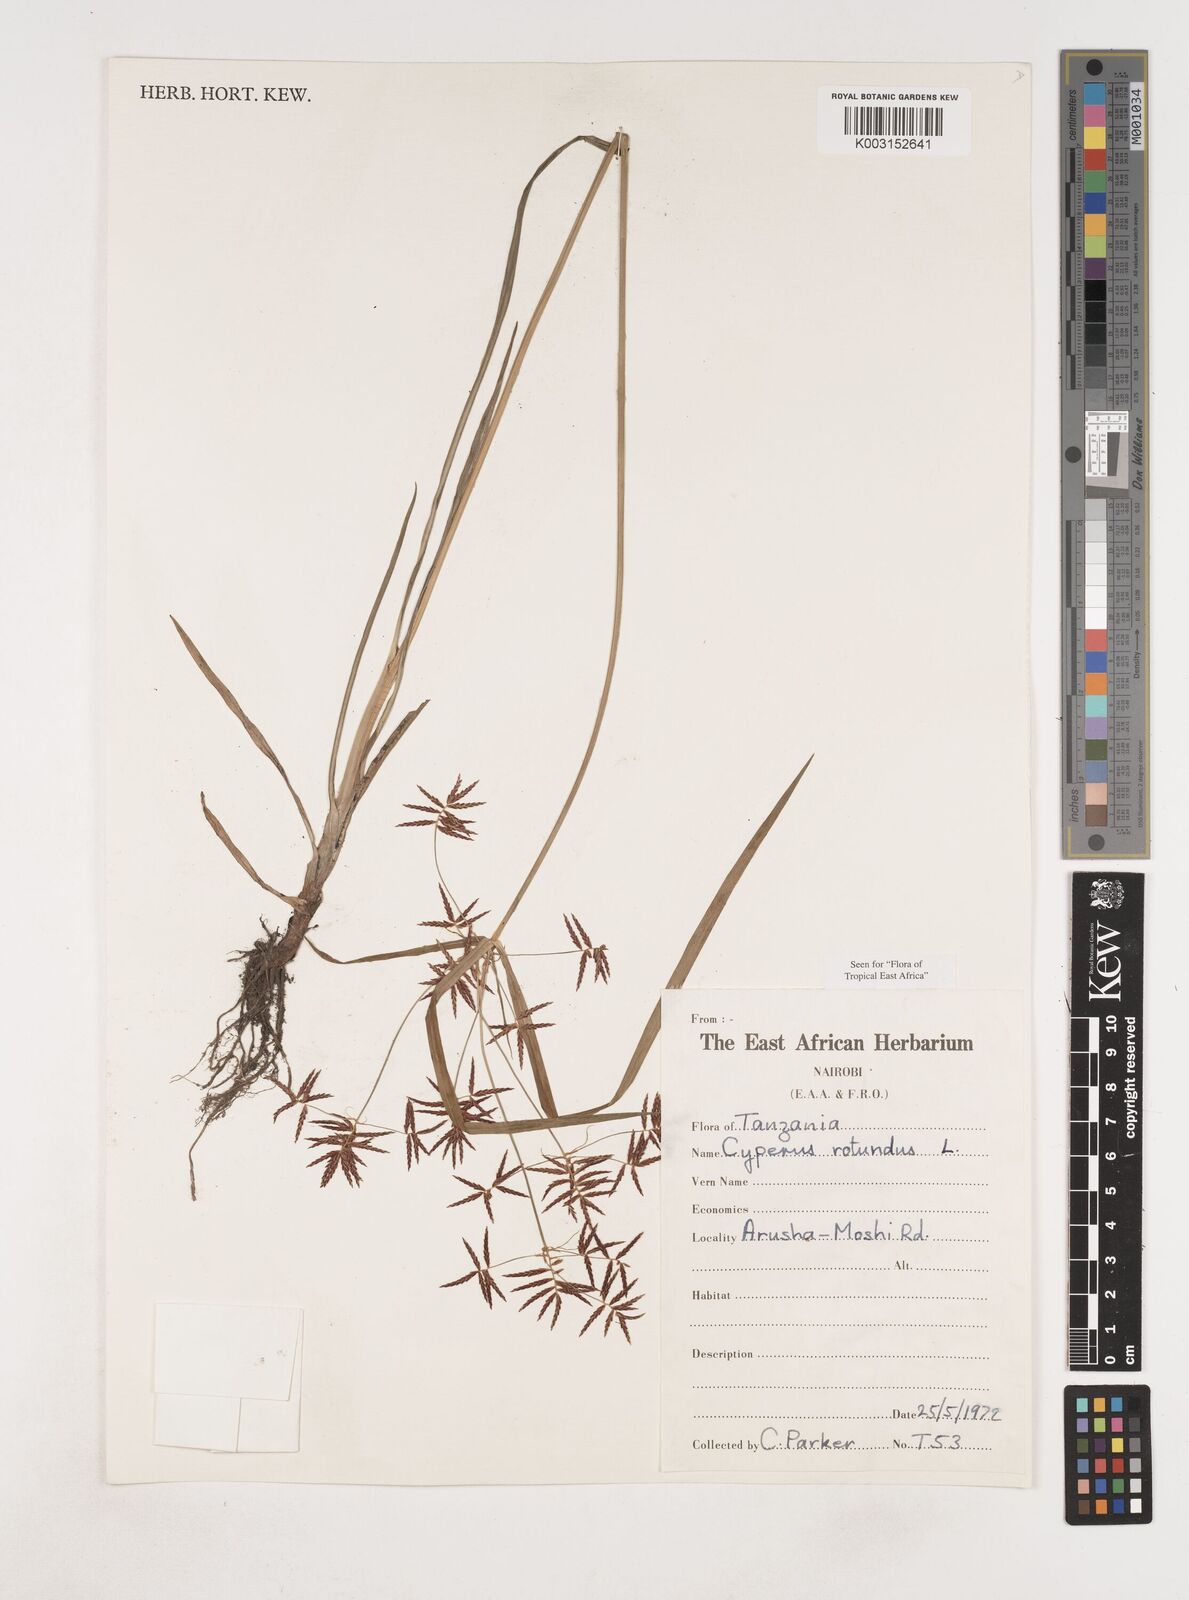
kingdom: Plantae
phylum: Tracheophyta
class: Liliopsida
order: Poales
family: Cyperaceae
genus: Cyperus
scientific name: Cyperus rotundus
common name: Nutgrass
